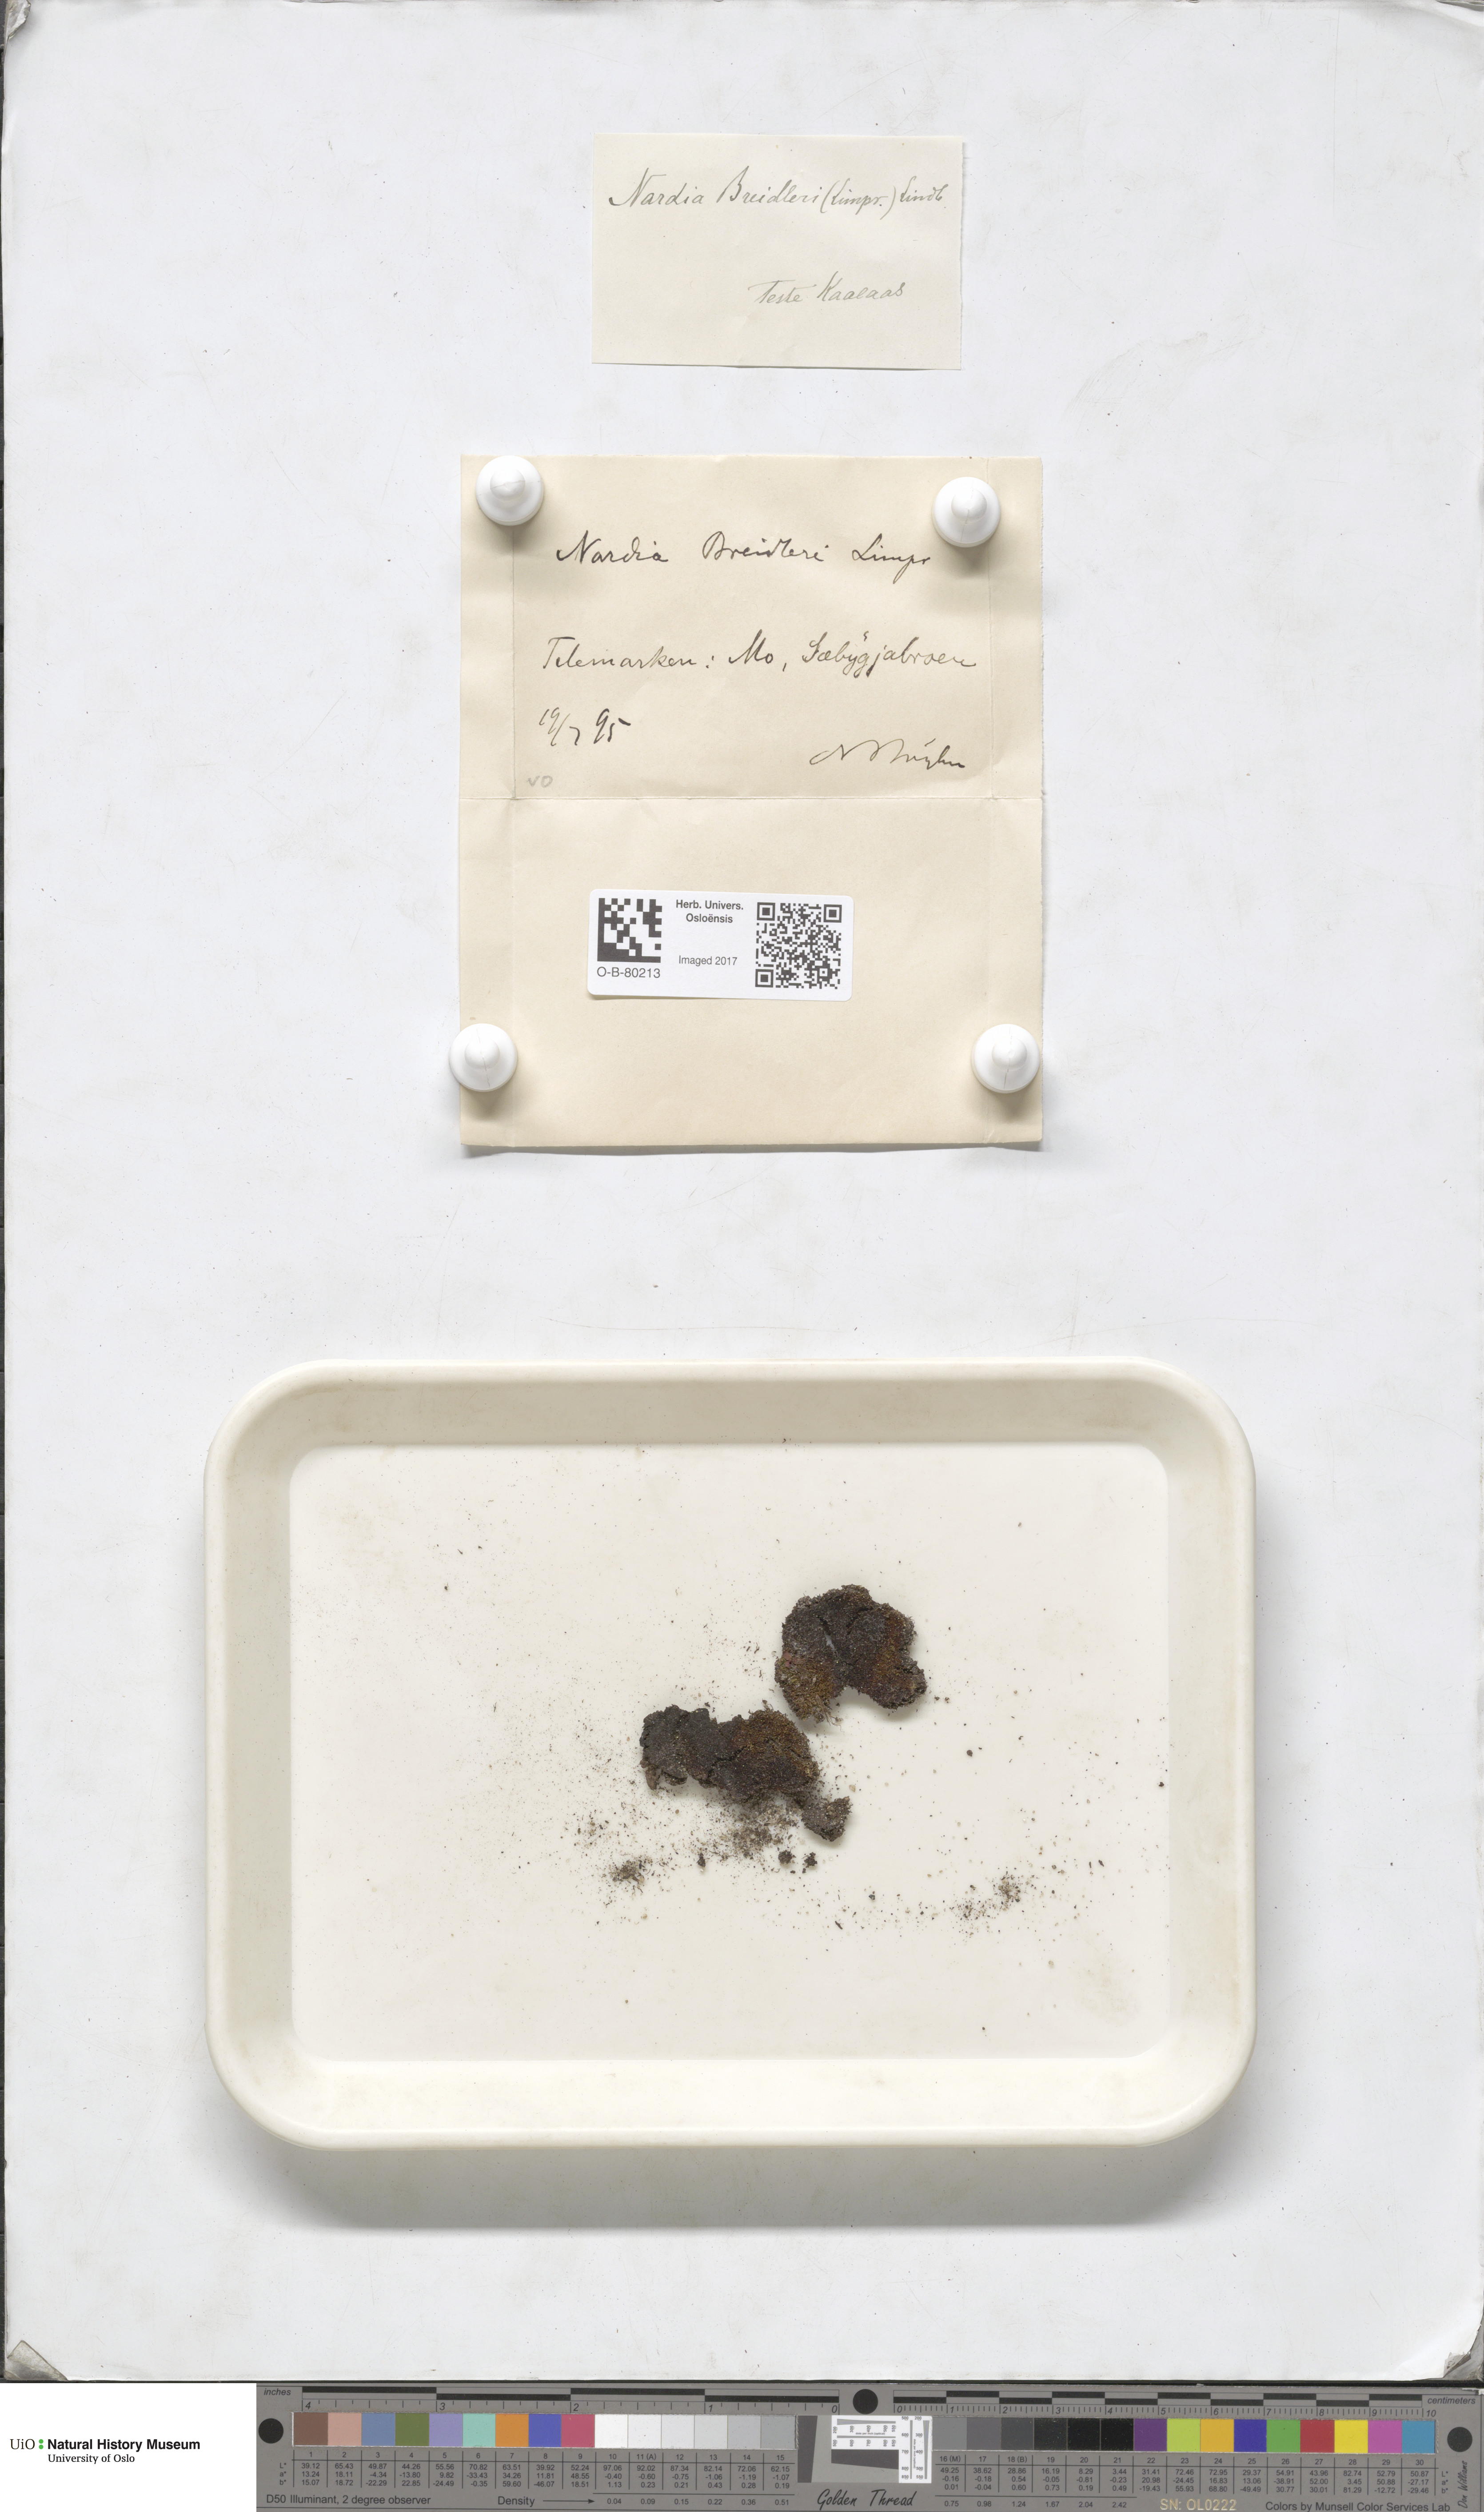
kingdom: Plantae
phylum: Marchantiophyta
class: Jungermanniopsida
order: Jungermanniales
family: Gymnomitriaceae
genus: Nardia
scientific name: Nardia breidleri
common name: Book flapwort
